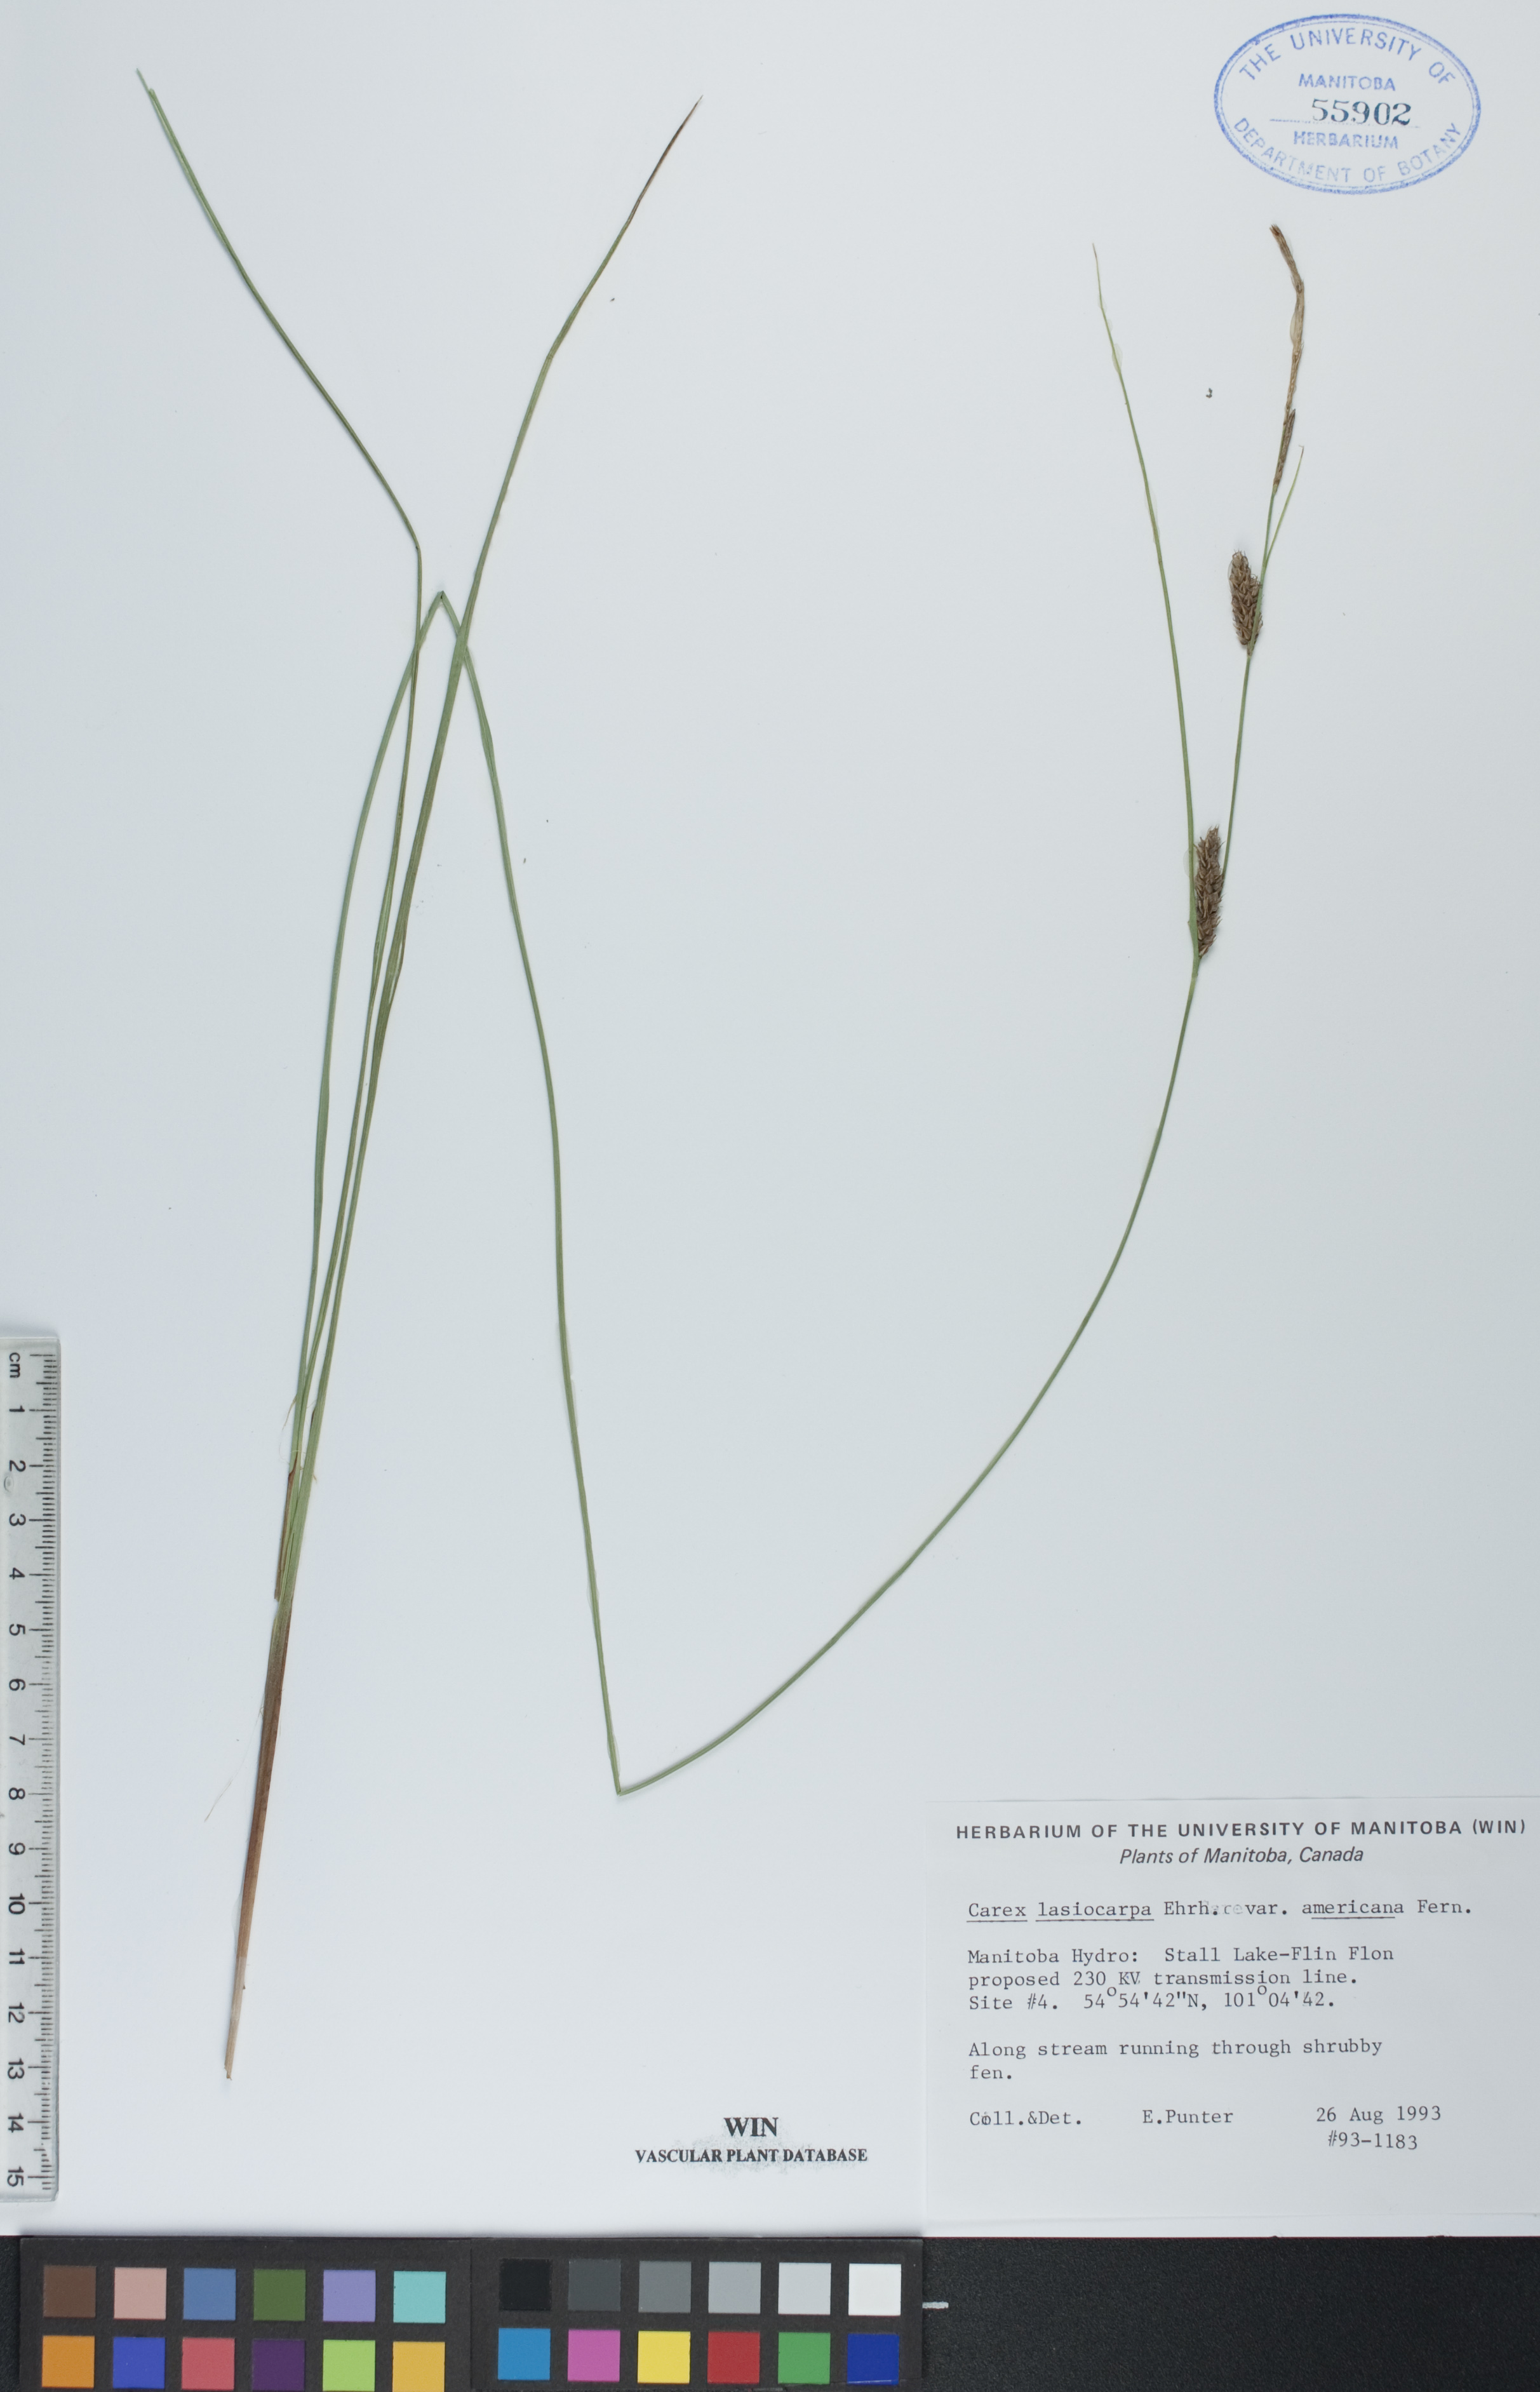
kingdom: Plantae
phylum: Tracheophyta
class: Liliopsida
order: Poales
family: Cyperaceae
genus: Carex
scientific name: Carex lasiocarpa
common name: Slender sedge
